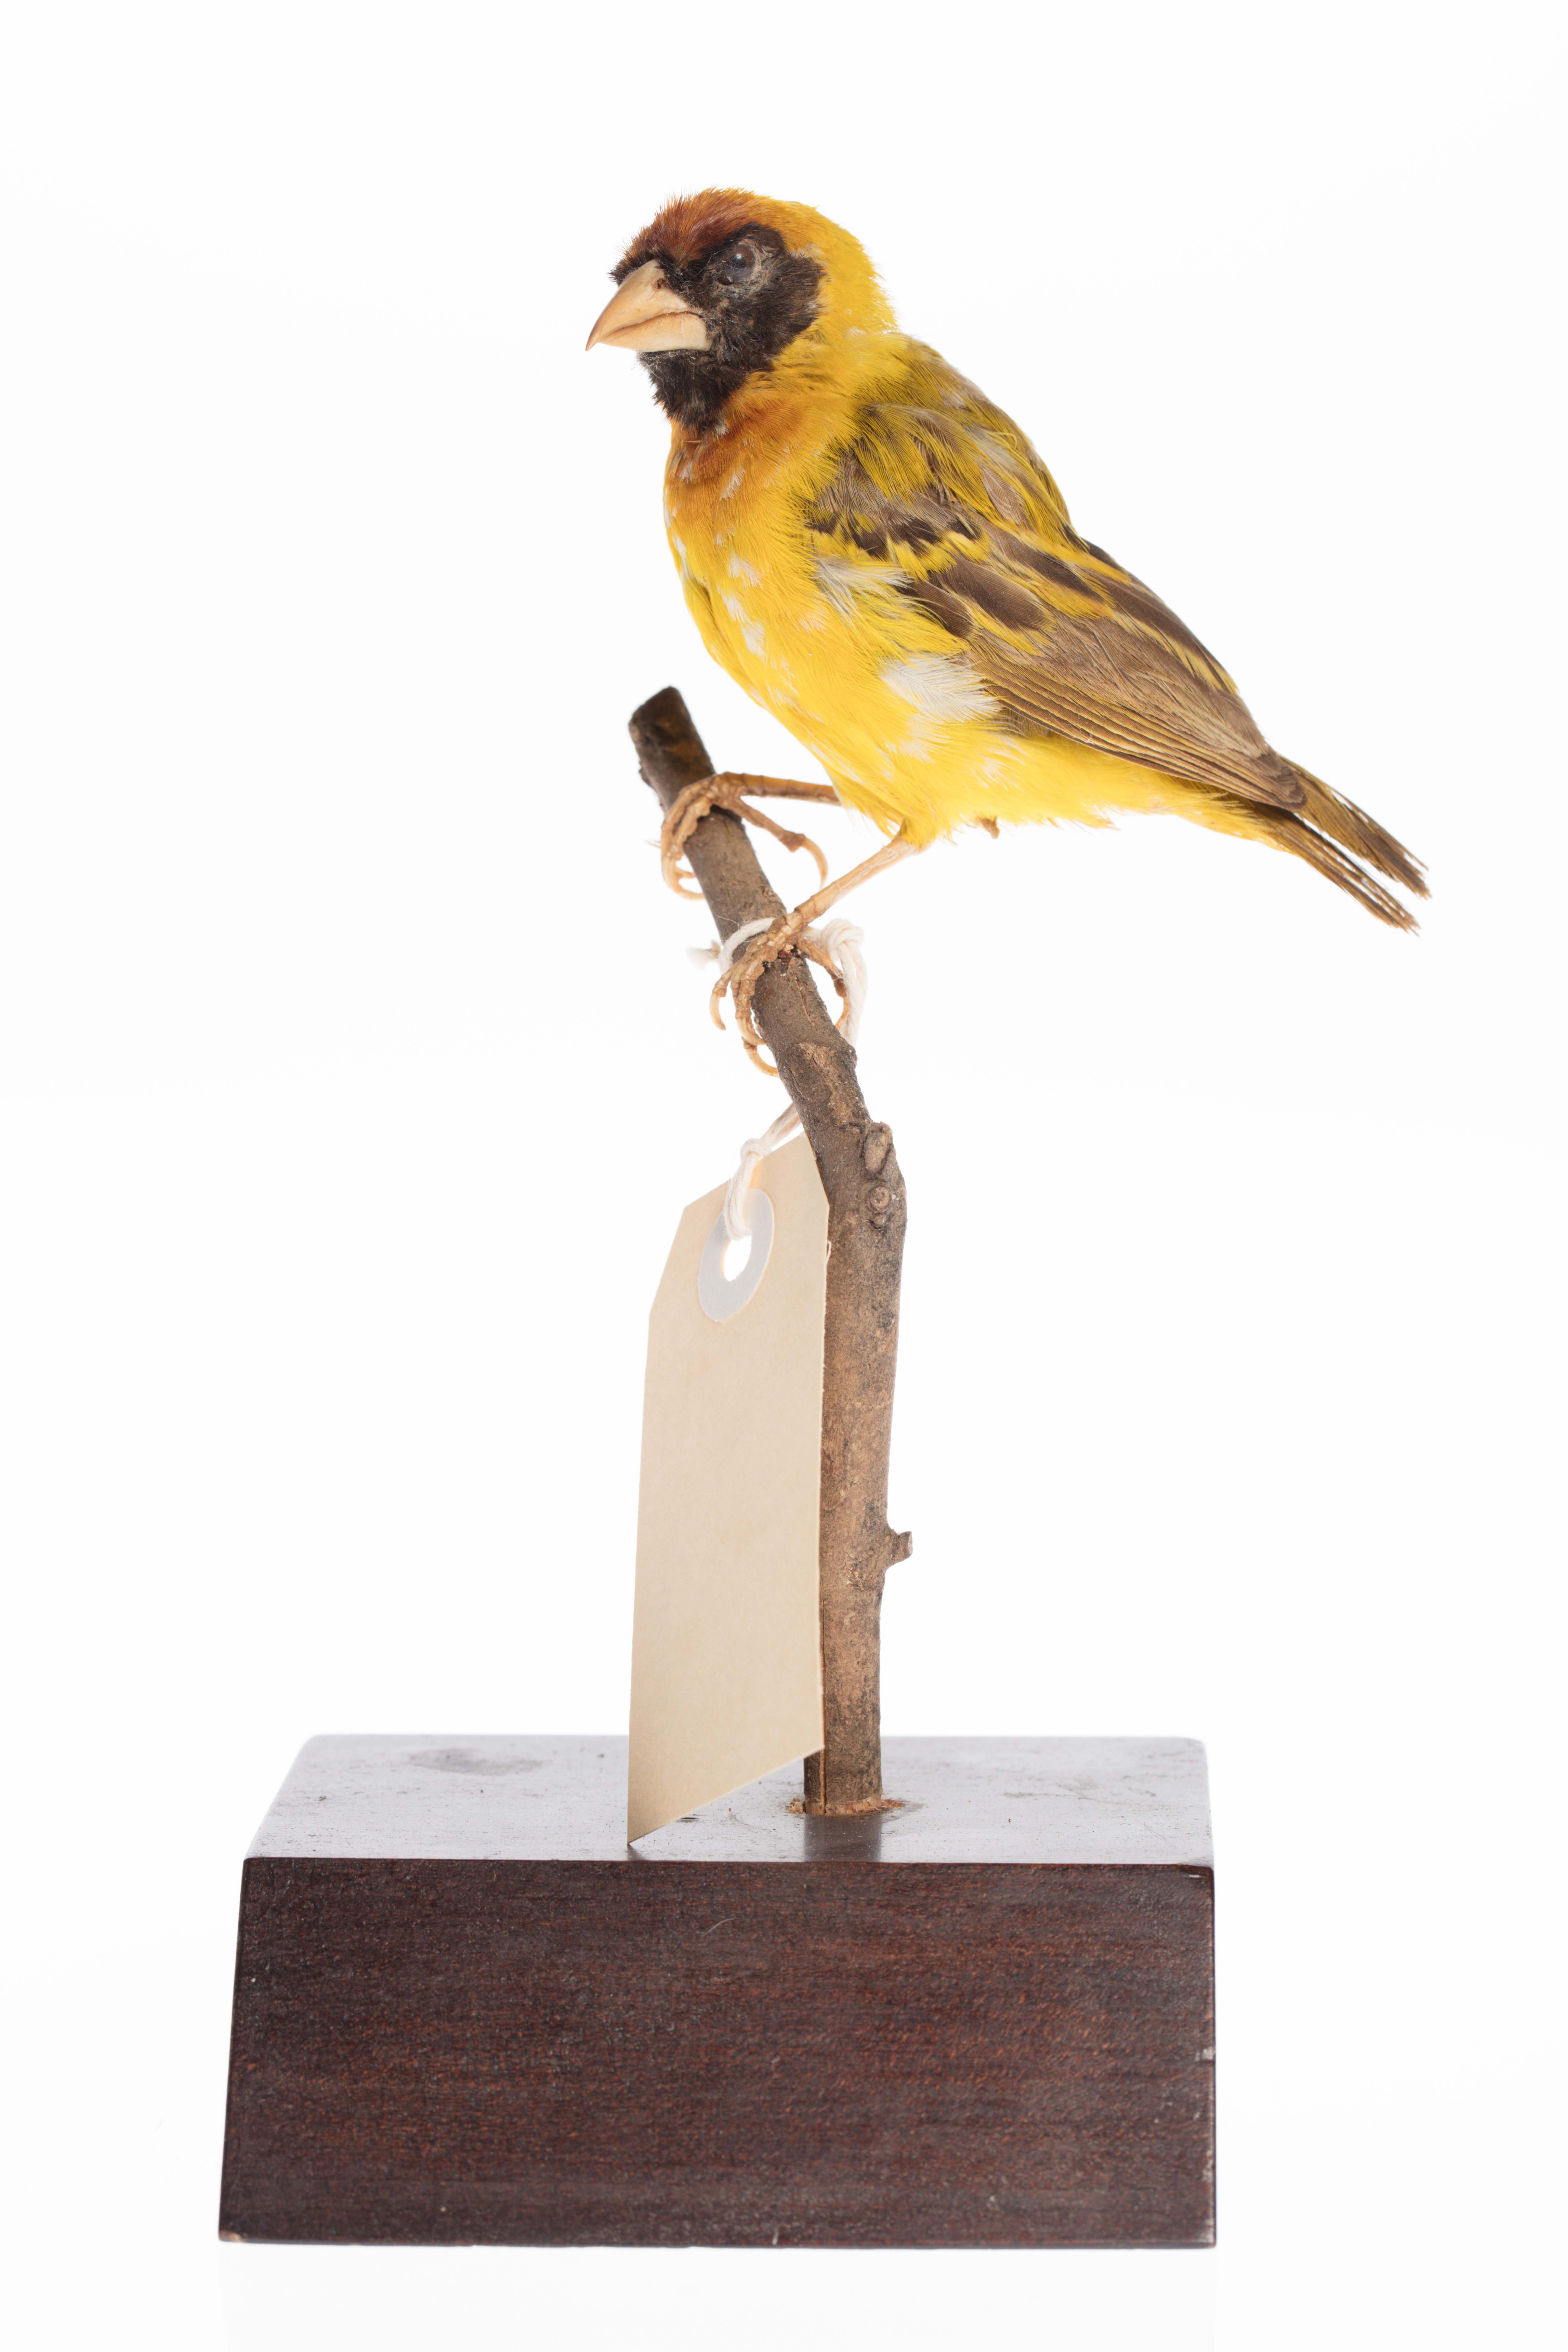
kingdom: Animalia
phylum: Chordata
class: Aves
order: Passeriformes
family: Ploceidae
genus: Ploceus
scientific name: Ploceus vitellinus
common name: Vitelline masked weaver
